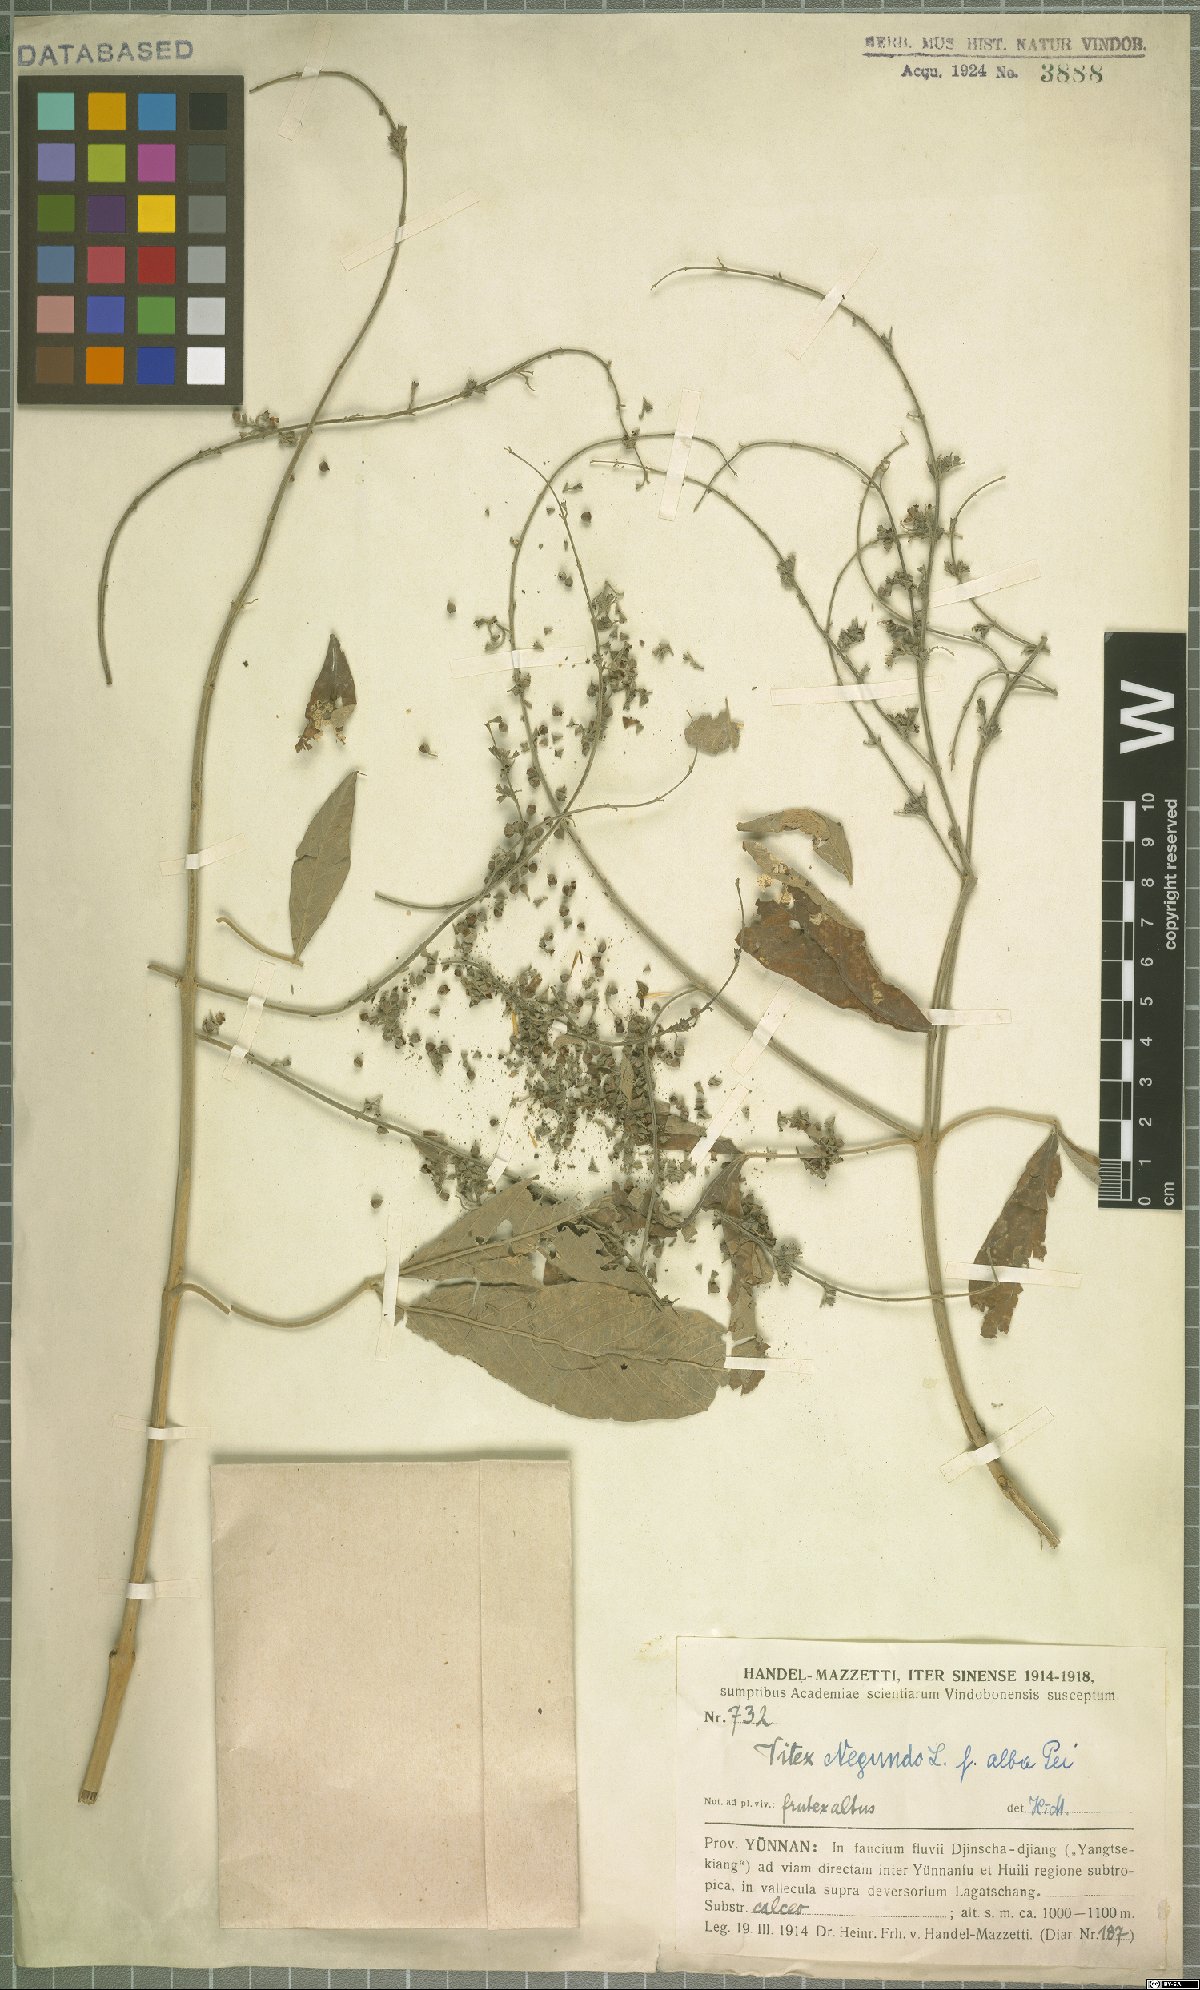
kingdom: Plantae
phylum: Tracheophyta
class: Magnoliopsida
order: Lamiales
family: Lamiaceae
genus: Vitex
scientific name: Vitex negundo
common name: Chinese chastetree
